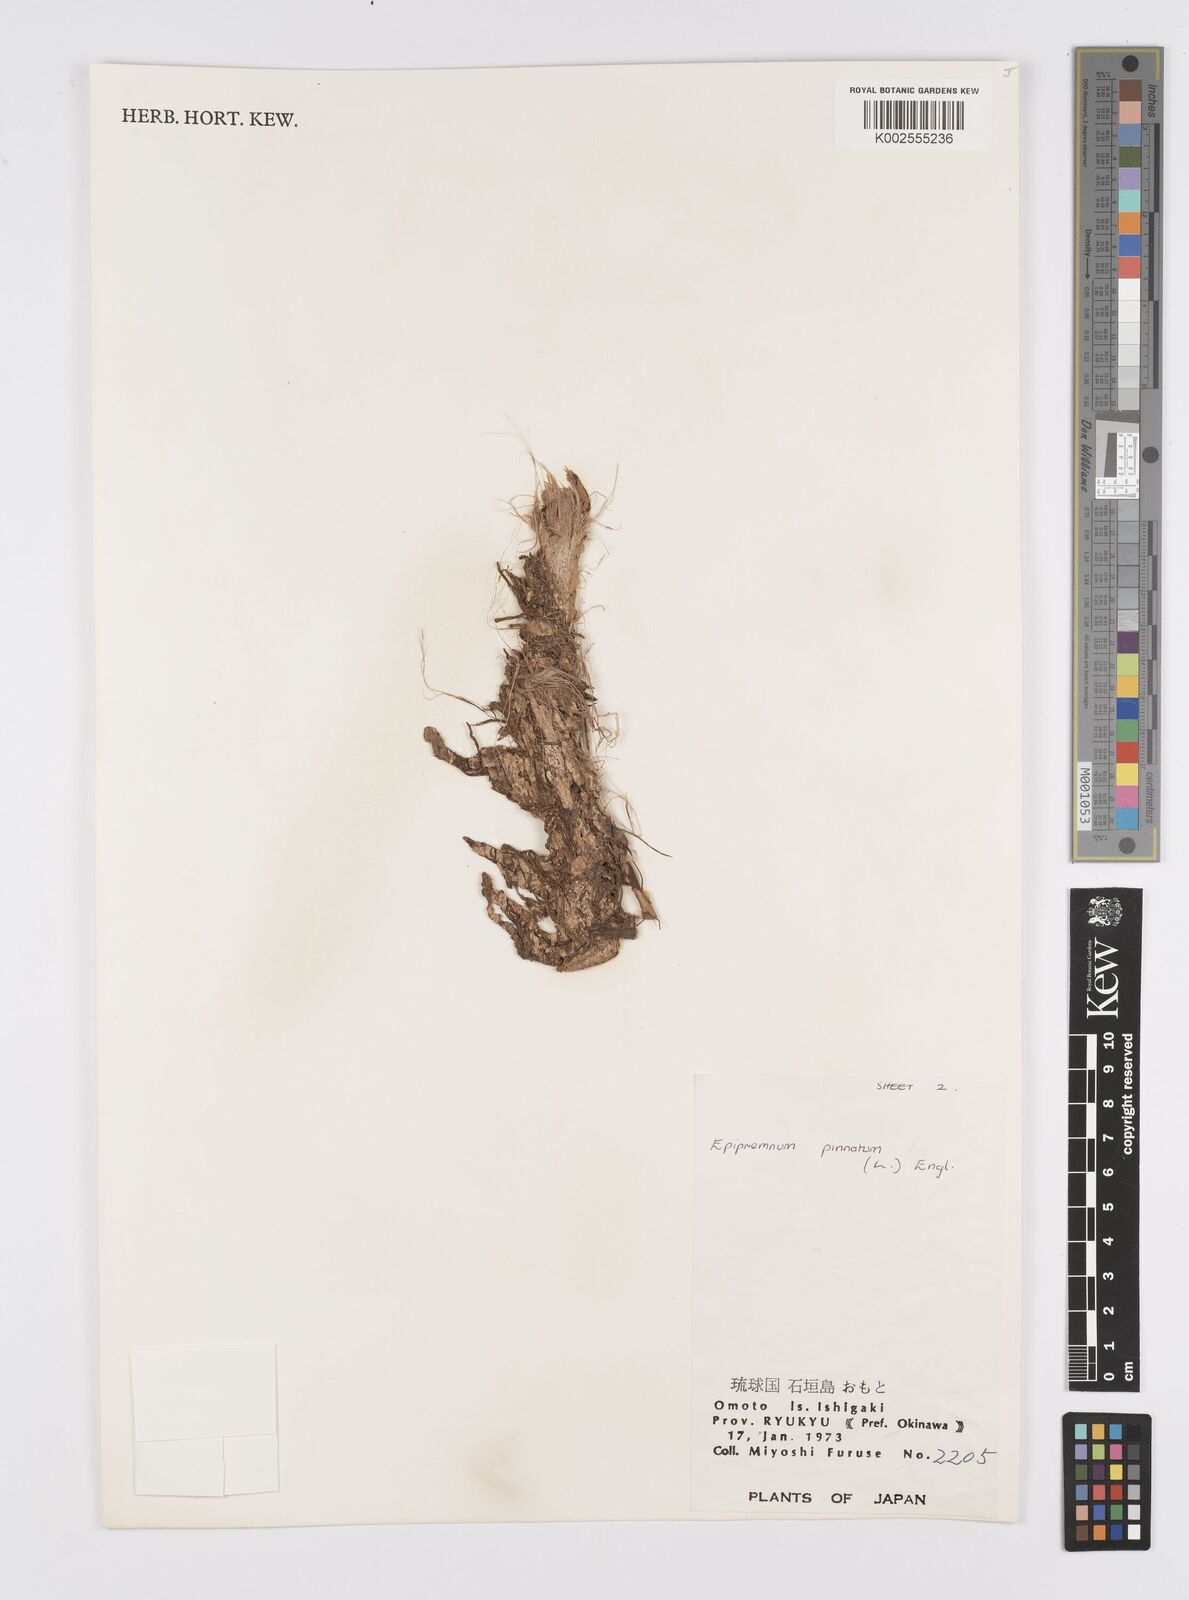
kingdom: Plantae
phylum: Tracheophyta
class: Liliopsida
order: Alismatales
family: Araceae
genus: Epipremnum
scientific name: Epipremnum pinnatum
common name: Centipede tongavine
